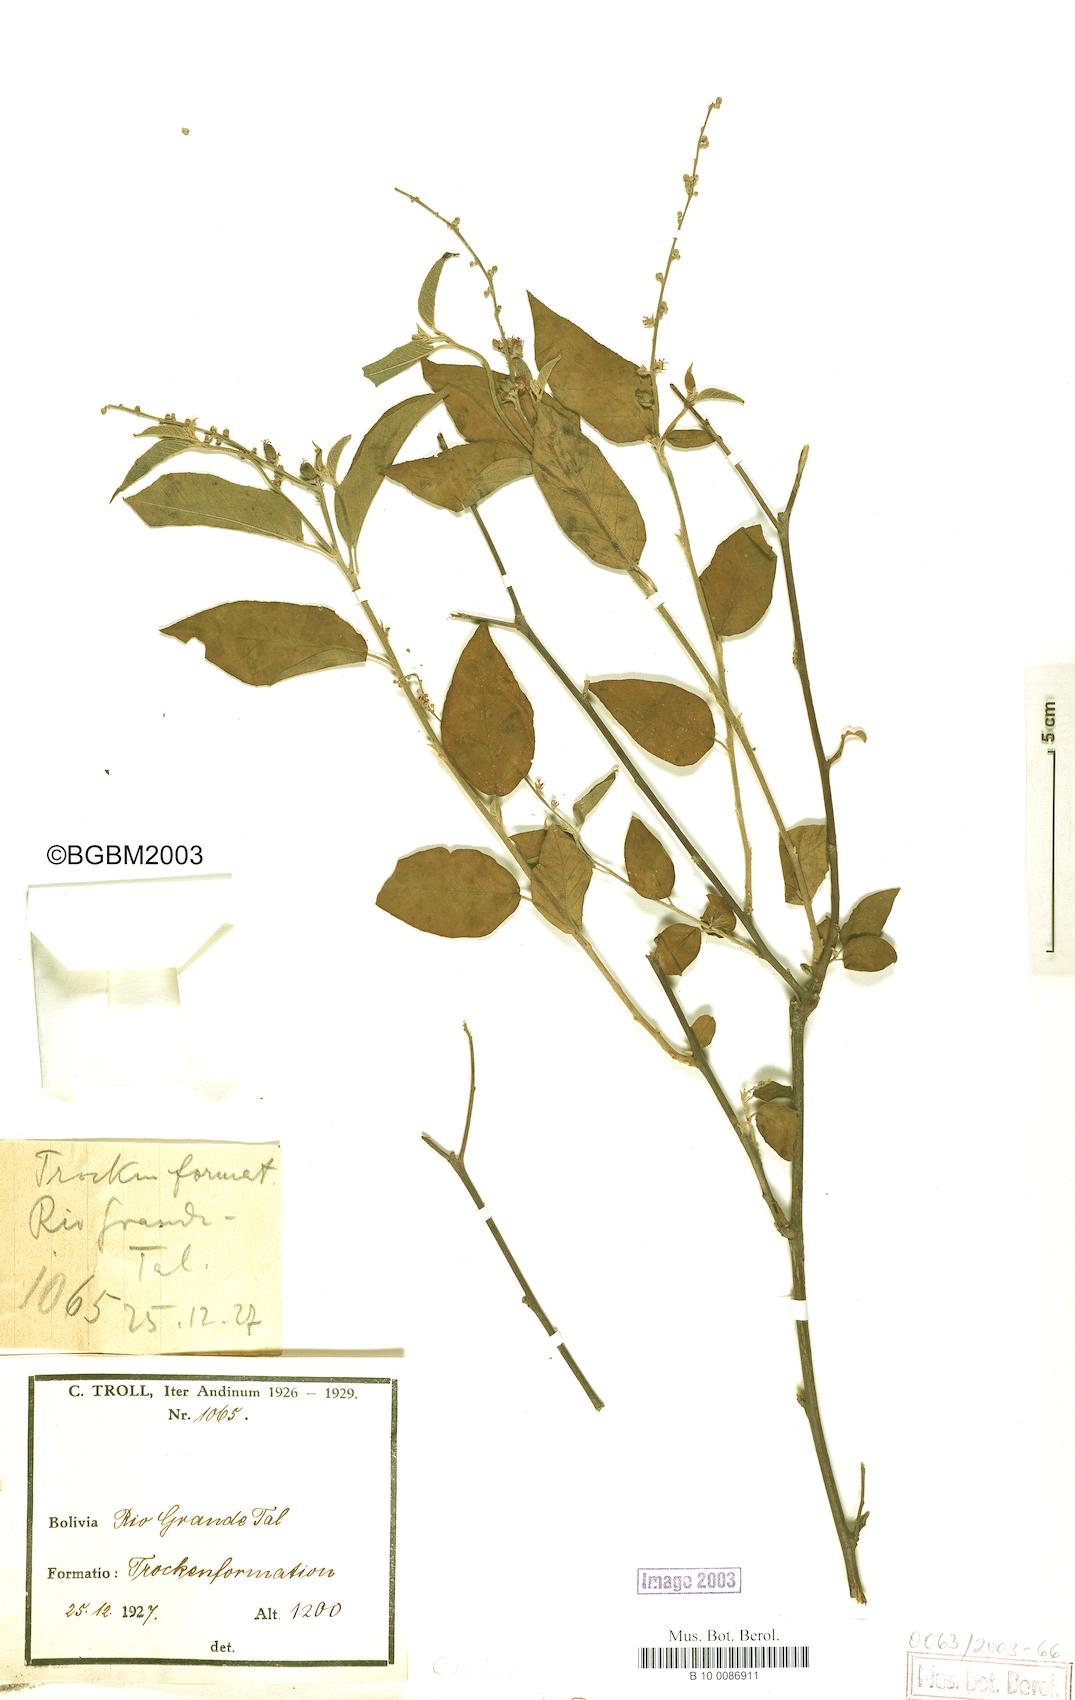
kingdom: Plantae
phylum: Tracheophyta
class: Magnoliopsida
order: Malpighiales
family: Euphorbiaceae
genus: Croton
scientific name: Croton
